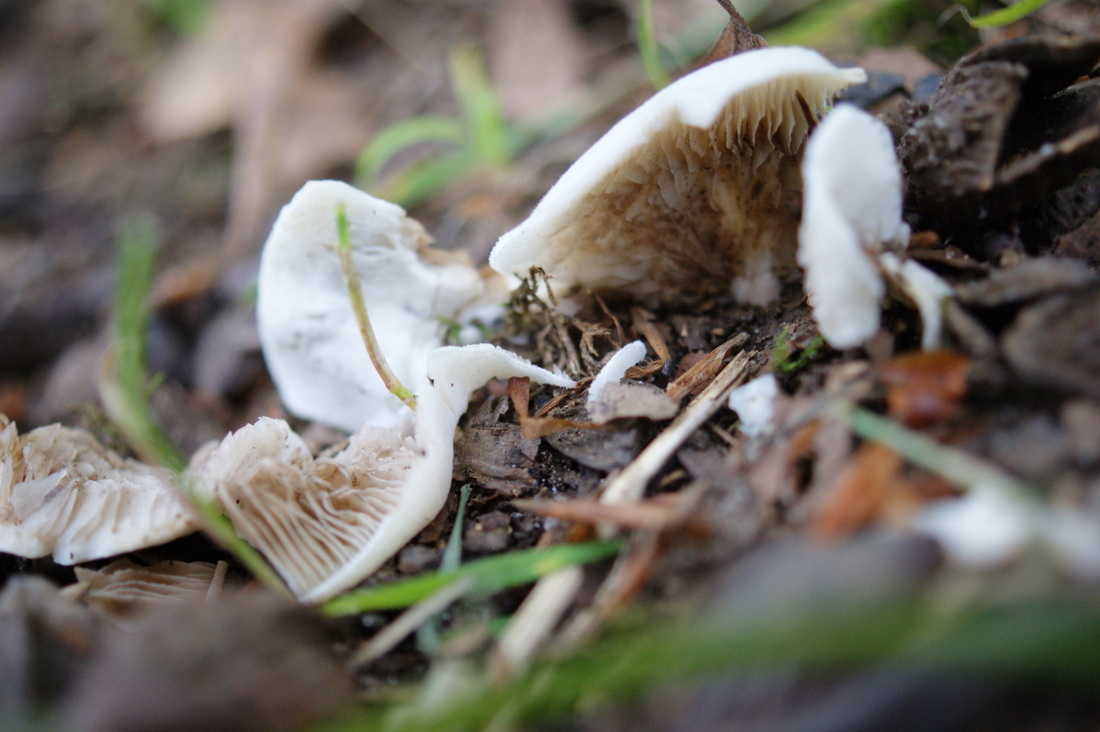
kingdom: Fungi
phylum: Basidiomycota
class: Agaricomycetes
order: Agaricales
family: Crepidotaceae
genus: Crepidotus
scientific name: Crepidotus autochthonus
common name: skæv muslingesvamp
